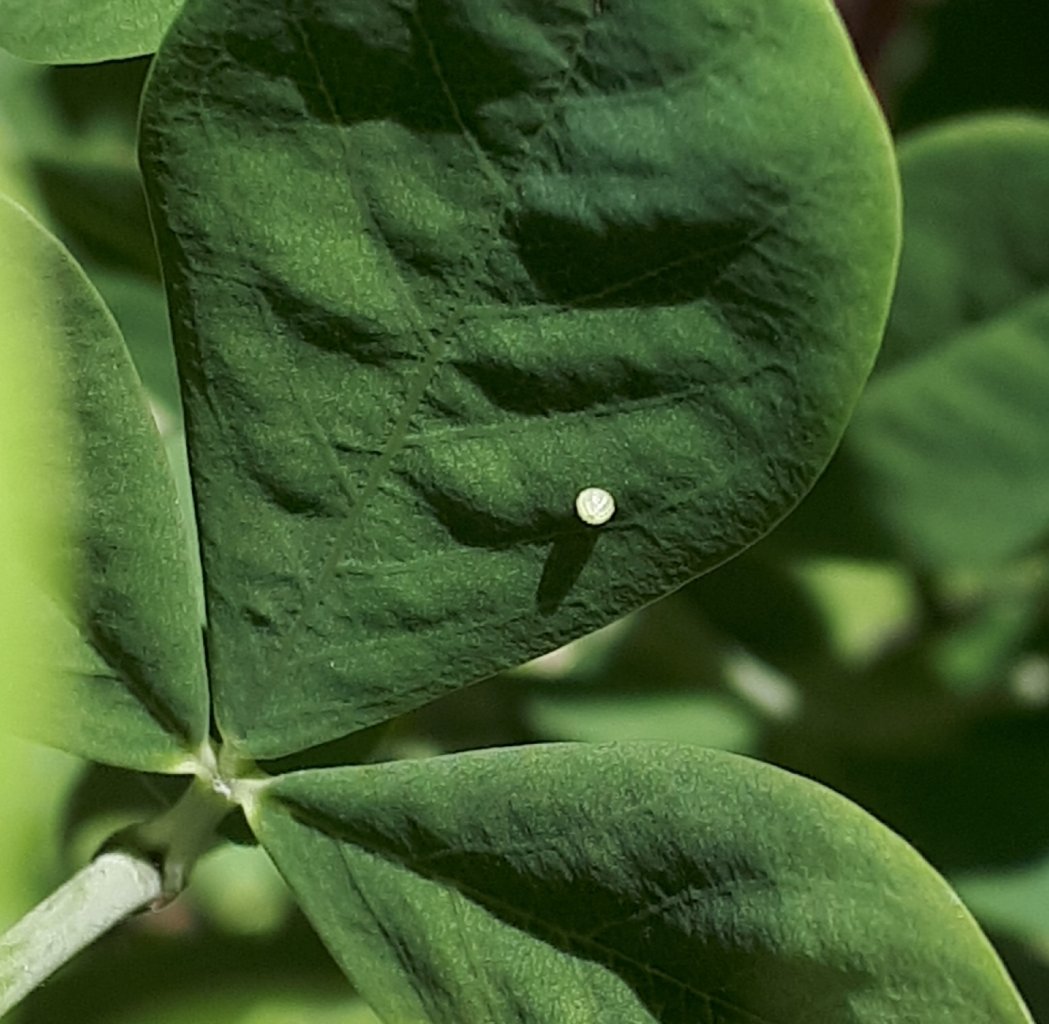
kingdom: Animalia
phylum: Arthropoda
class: Insecta
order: Lepidoptera
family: Hesperiidae
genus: Gesta
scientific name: Gesta
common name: Wild Indigo Duskywing
